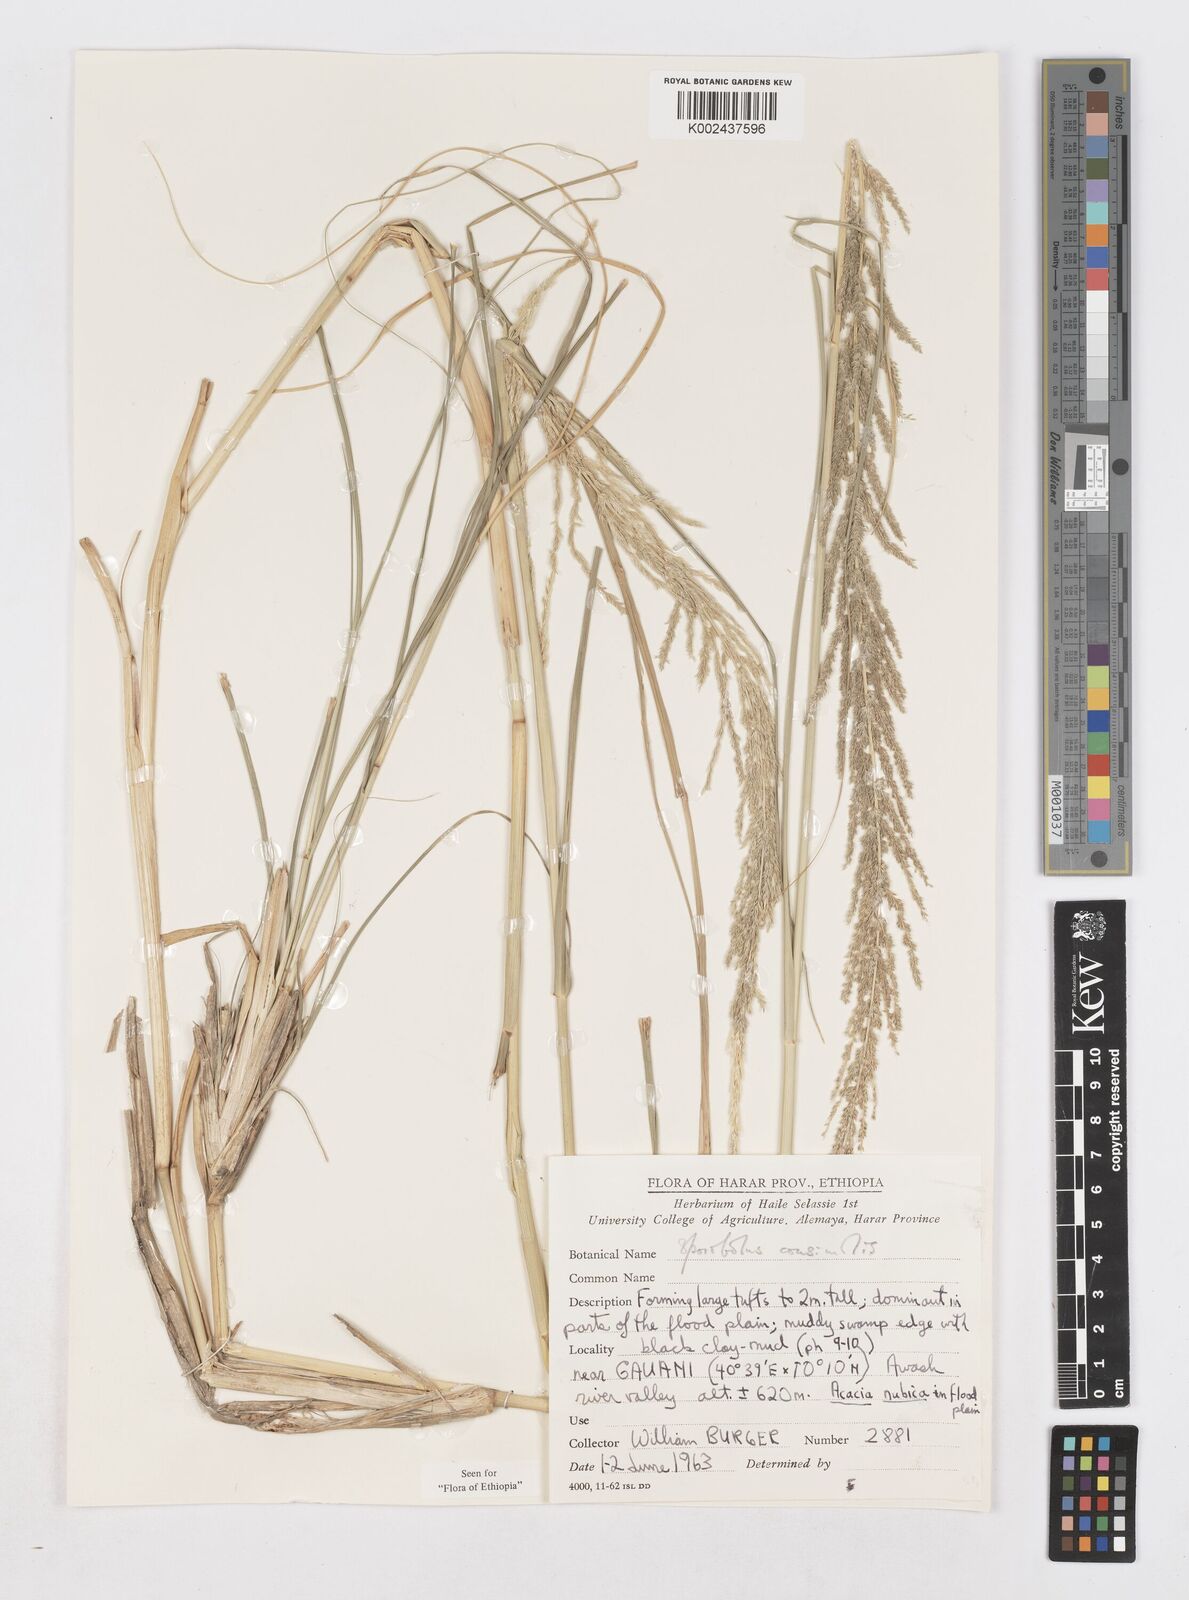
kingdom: Plantae
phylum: Tracheophyta
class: Liliopsida
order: Poales
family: Poaceae
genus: Sporobolus
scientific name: Sporobolus consimilis
